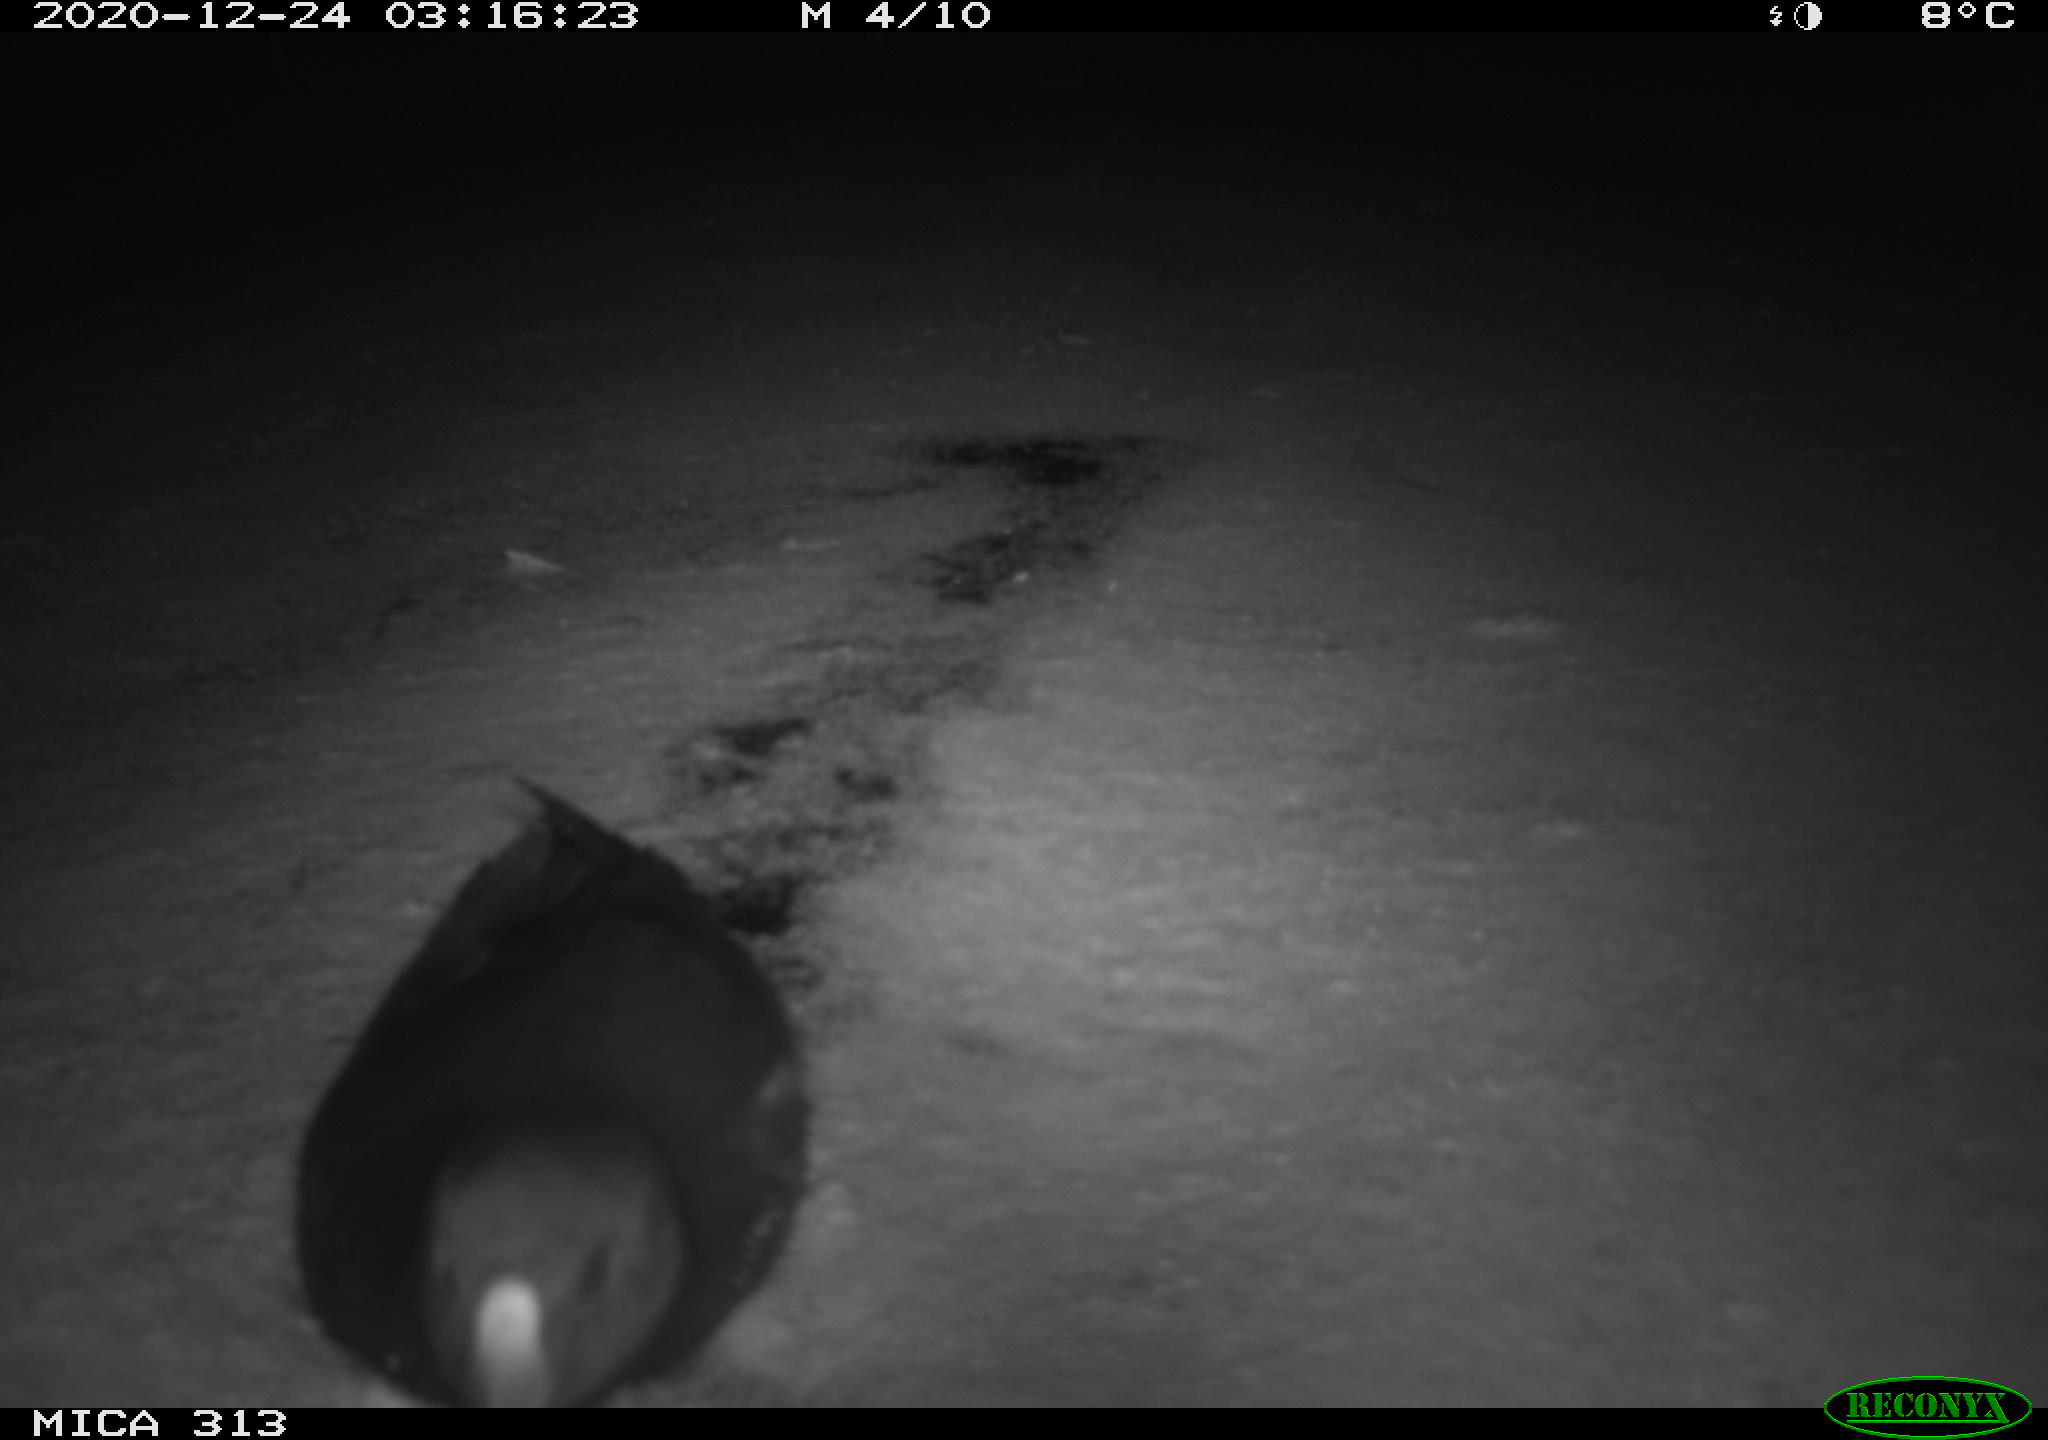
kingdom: Animalia
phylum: Chordata
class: Aves
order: Gruiformes
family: Rallidae
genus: Gallinula
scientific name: Gallinula chloropus
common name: Common moorhen
